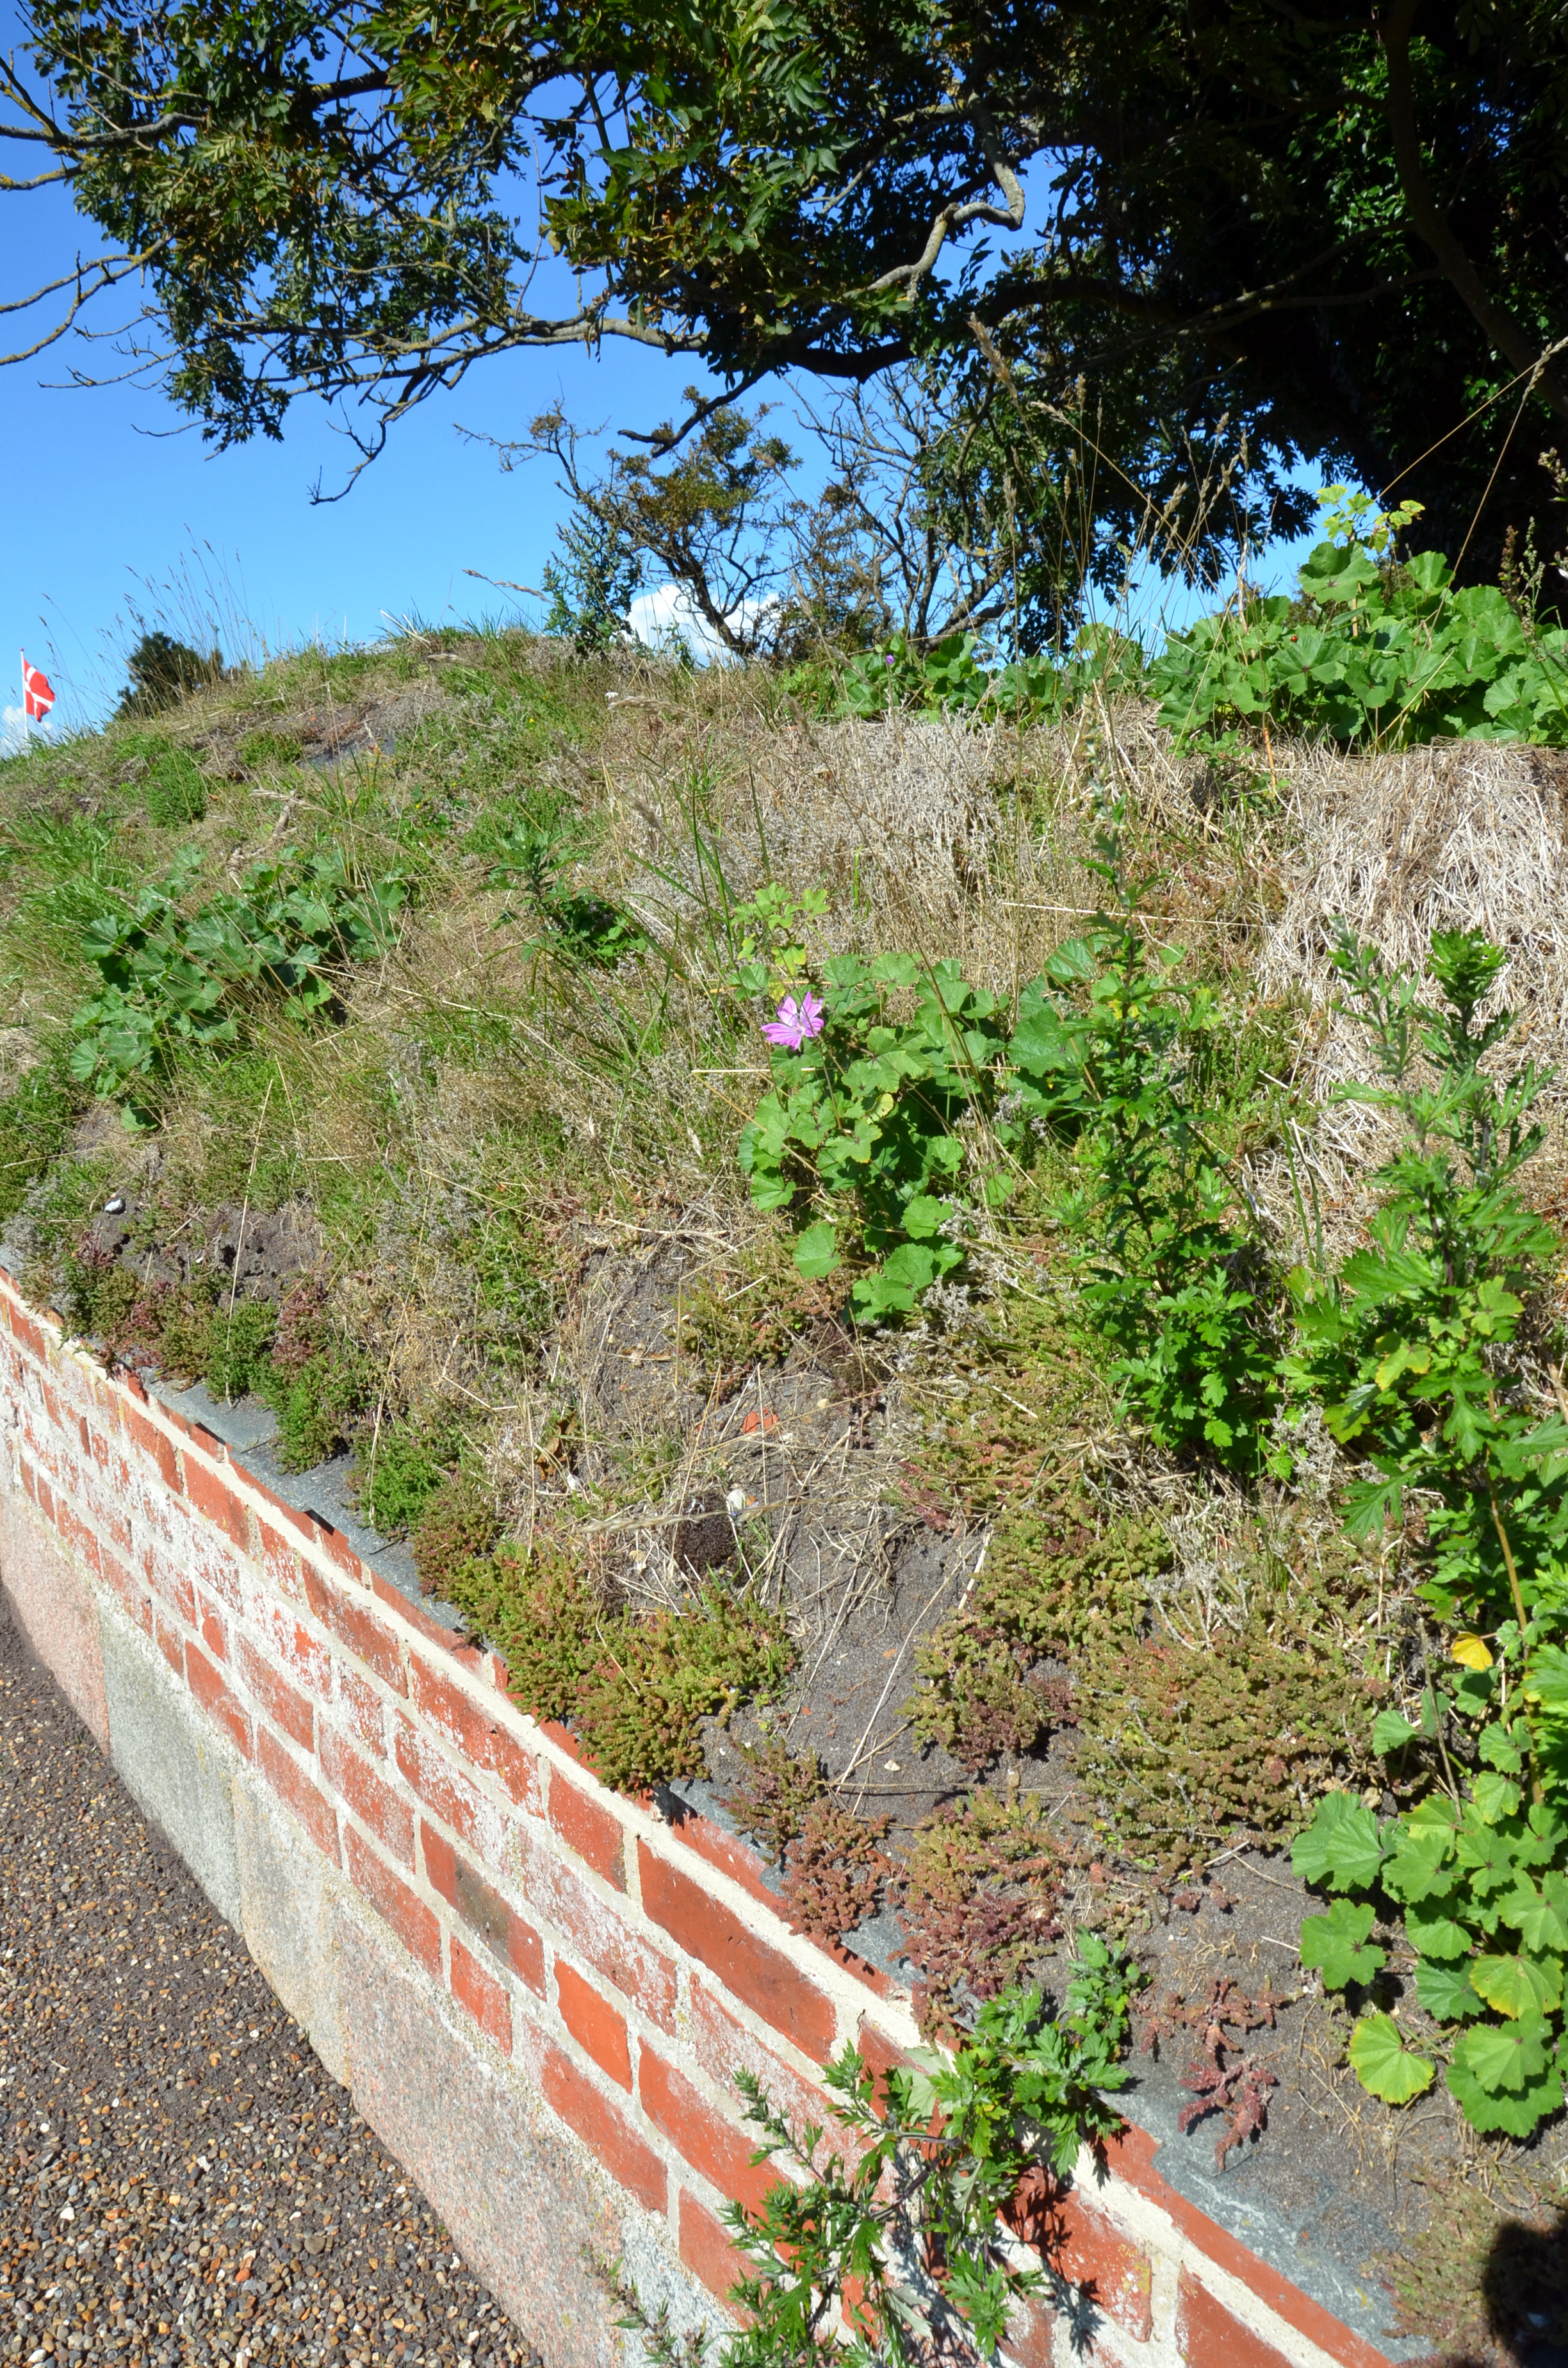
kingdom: Plantae
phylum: Tracheophyta
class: Magnoliopsida
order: Malvales
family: Malvaceae
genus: Malva
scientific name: Malva sylvestris
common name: Common mallow
